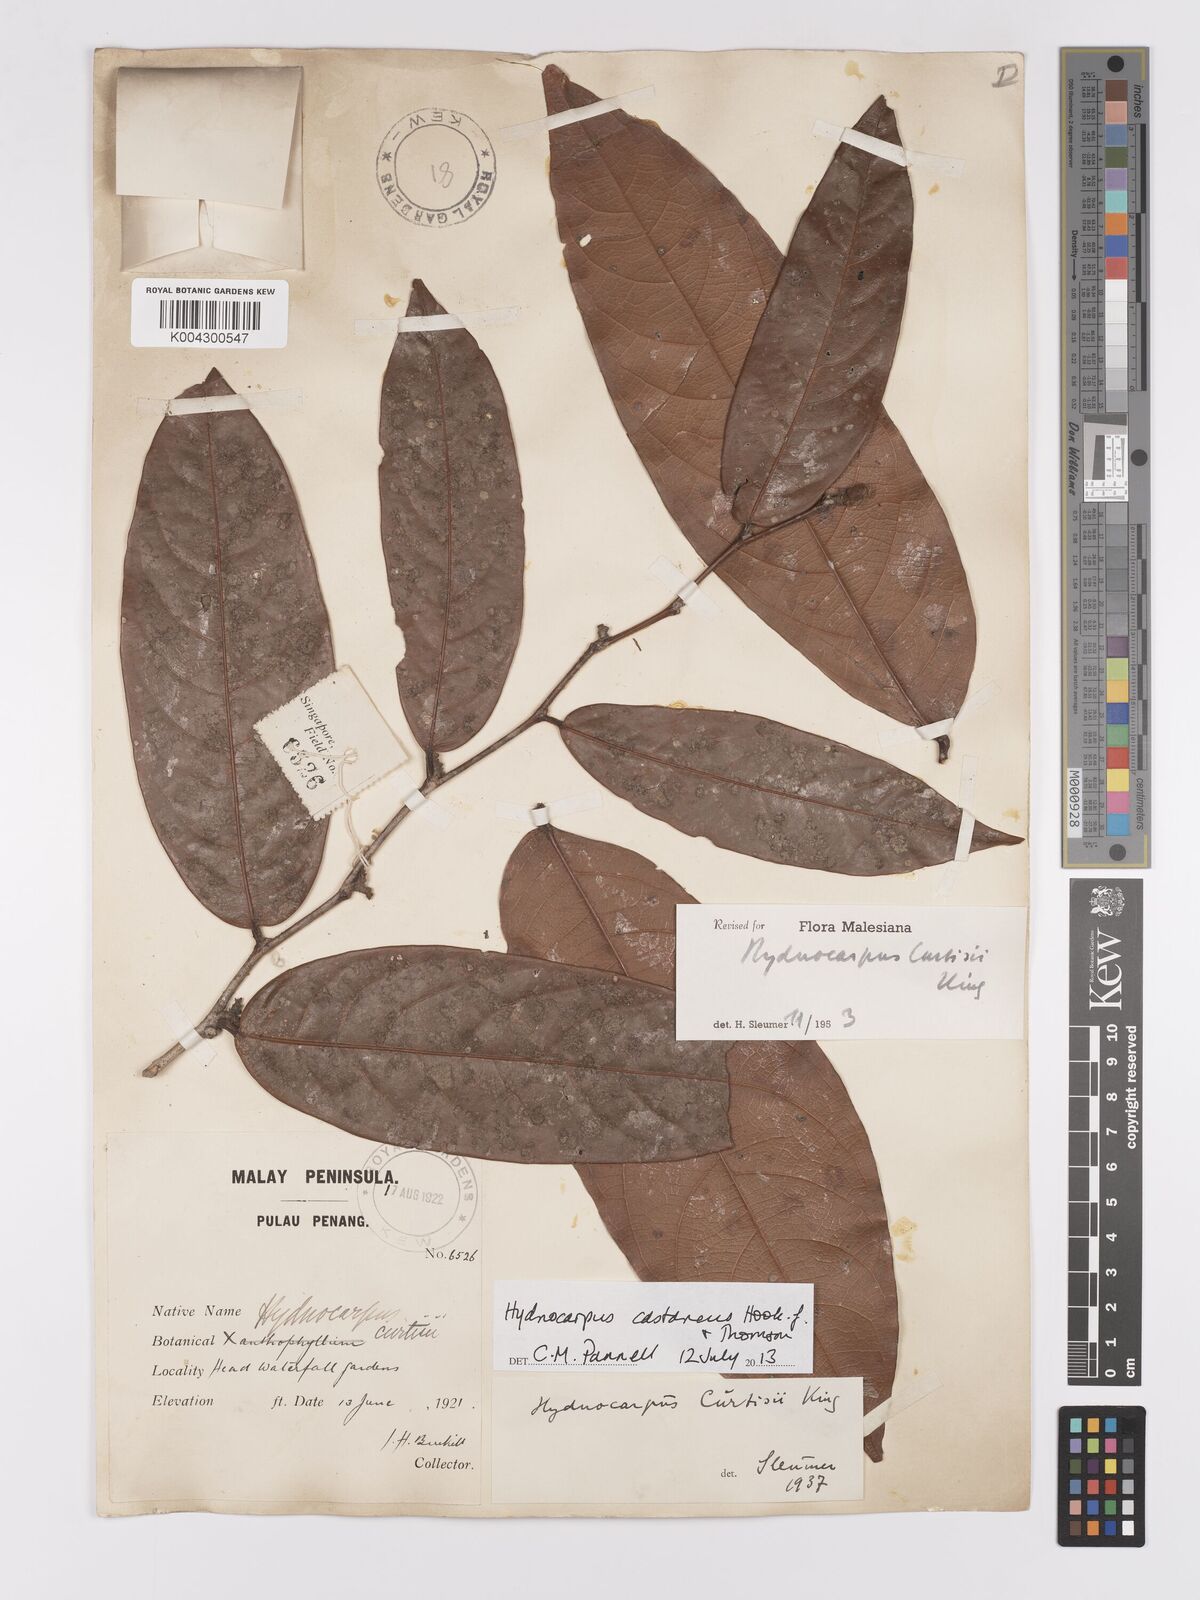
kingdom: Plantae
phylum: Tracheophyta
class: Magnoliopsida
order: Malpighiales
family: Achariaceae
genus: Hydnocarpus
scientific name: Hydnocarpus curtisii
